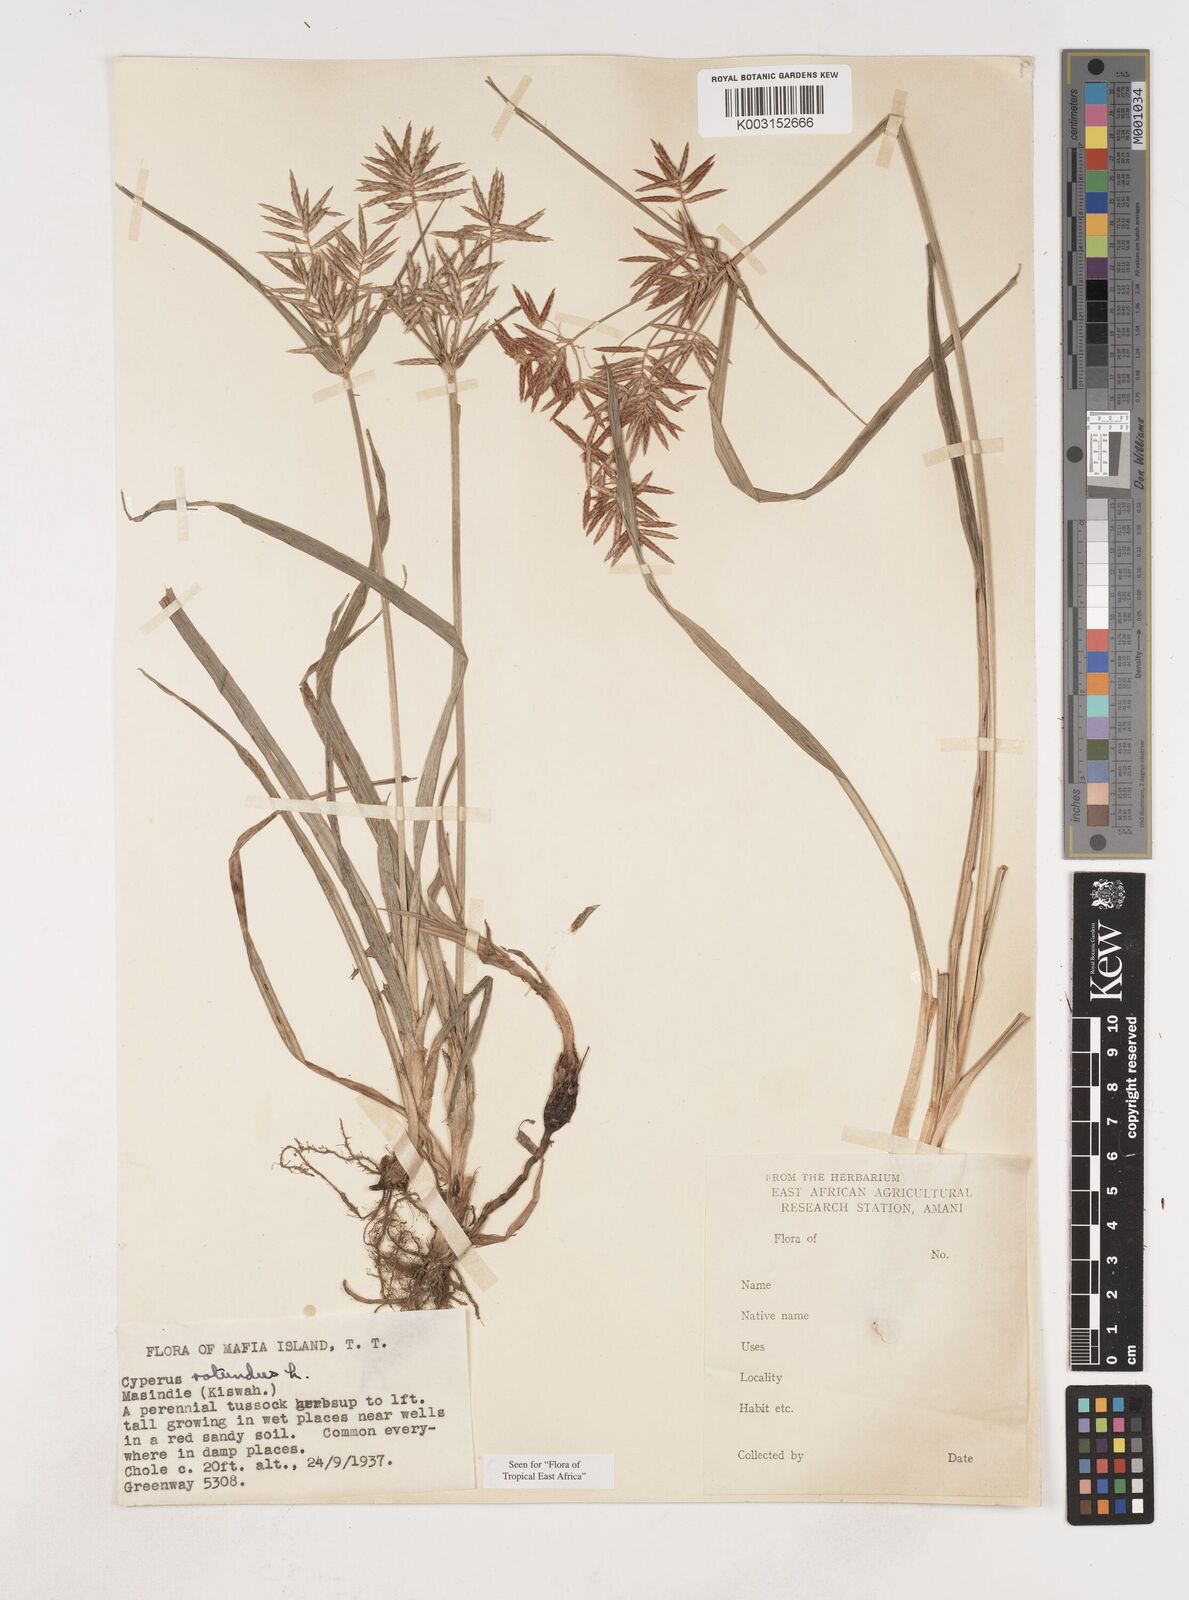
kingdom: Plantae
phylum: Tracheophyta
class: Liliopsida
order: Poales
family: Cyperaceae
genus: Cyperus
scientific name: Cyperus rotundus
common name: Nutgrass
